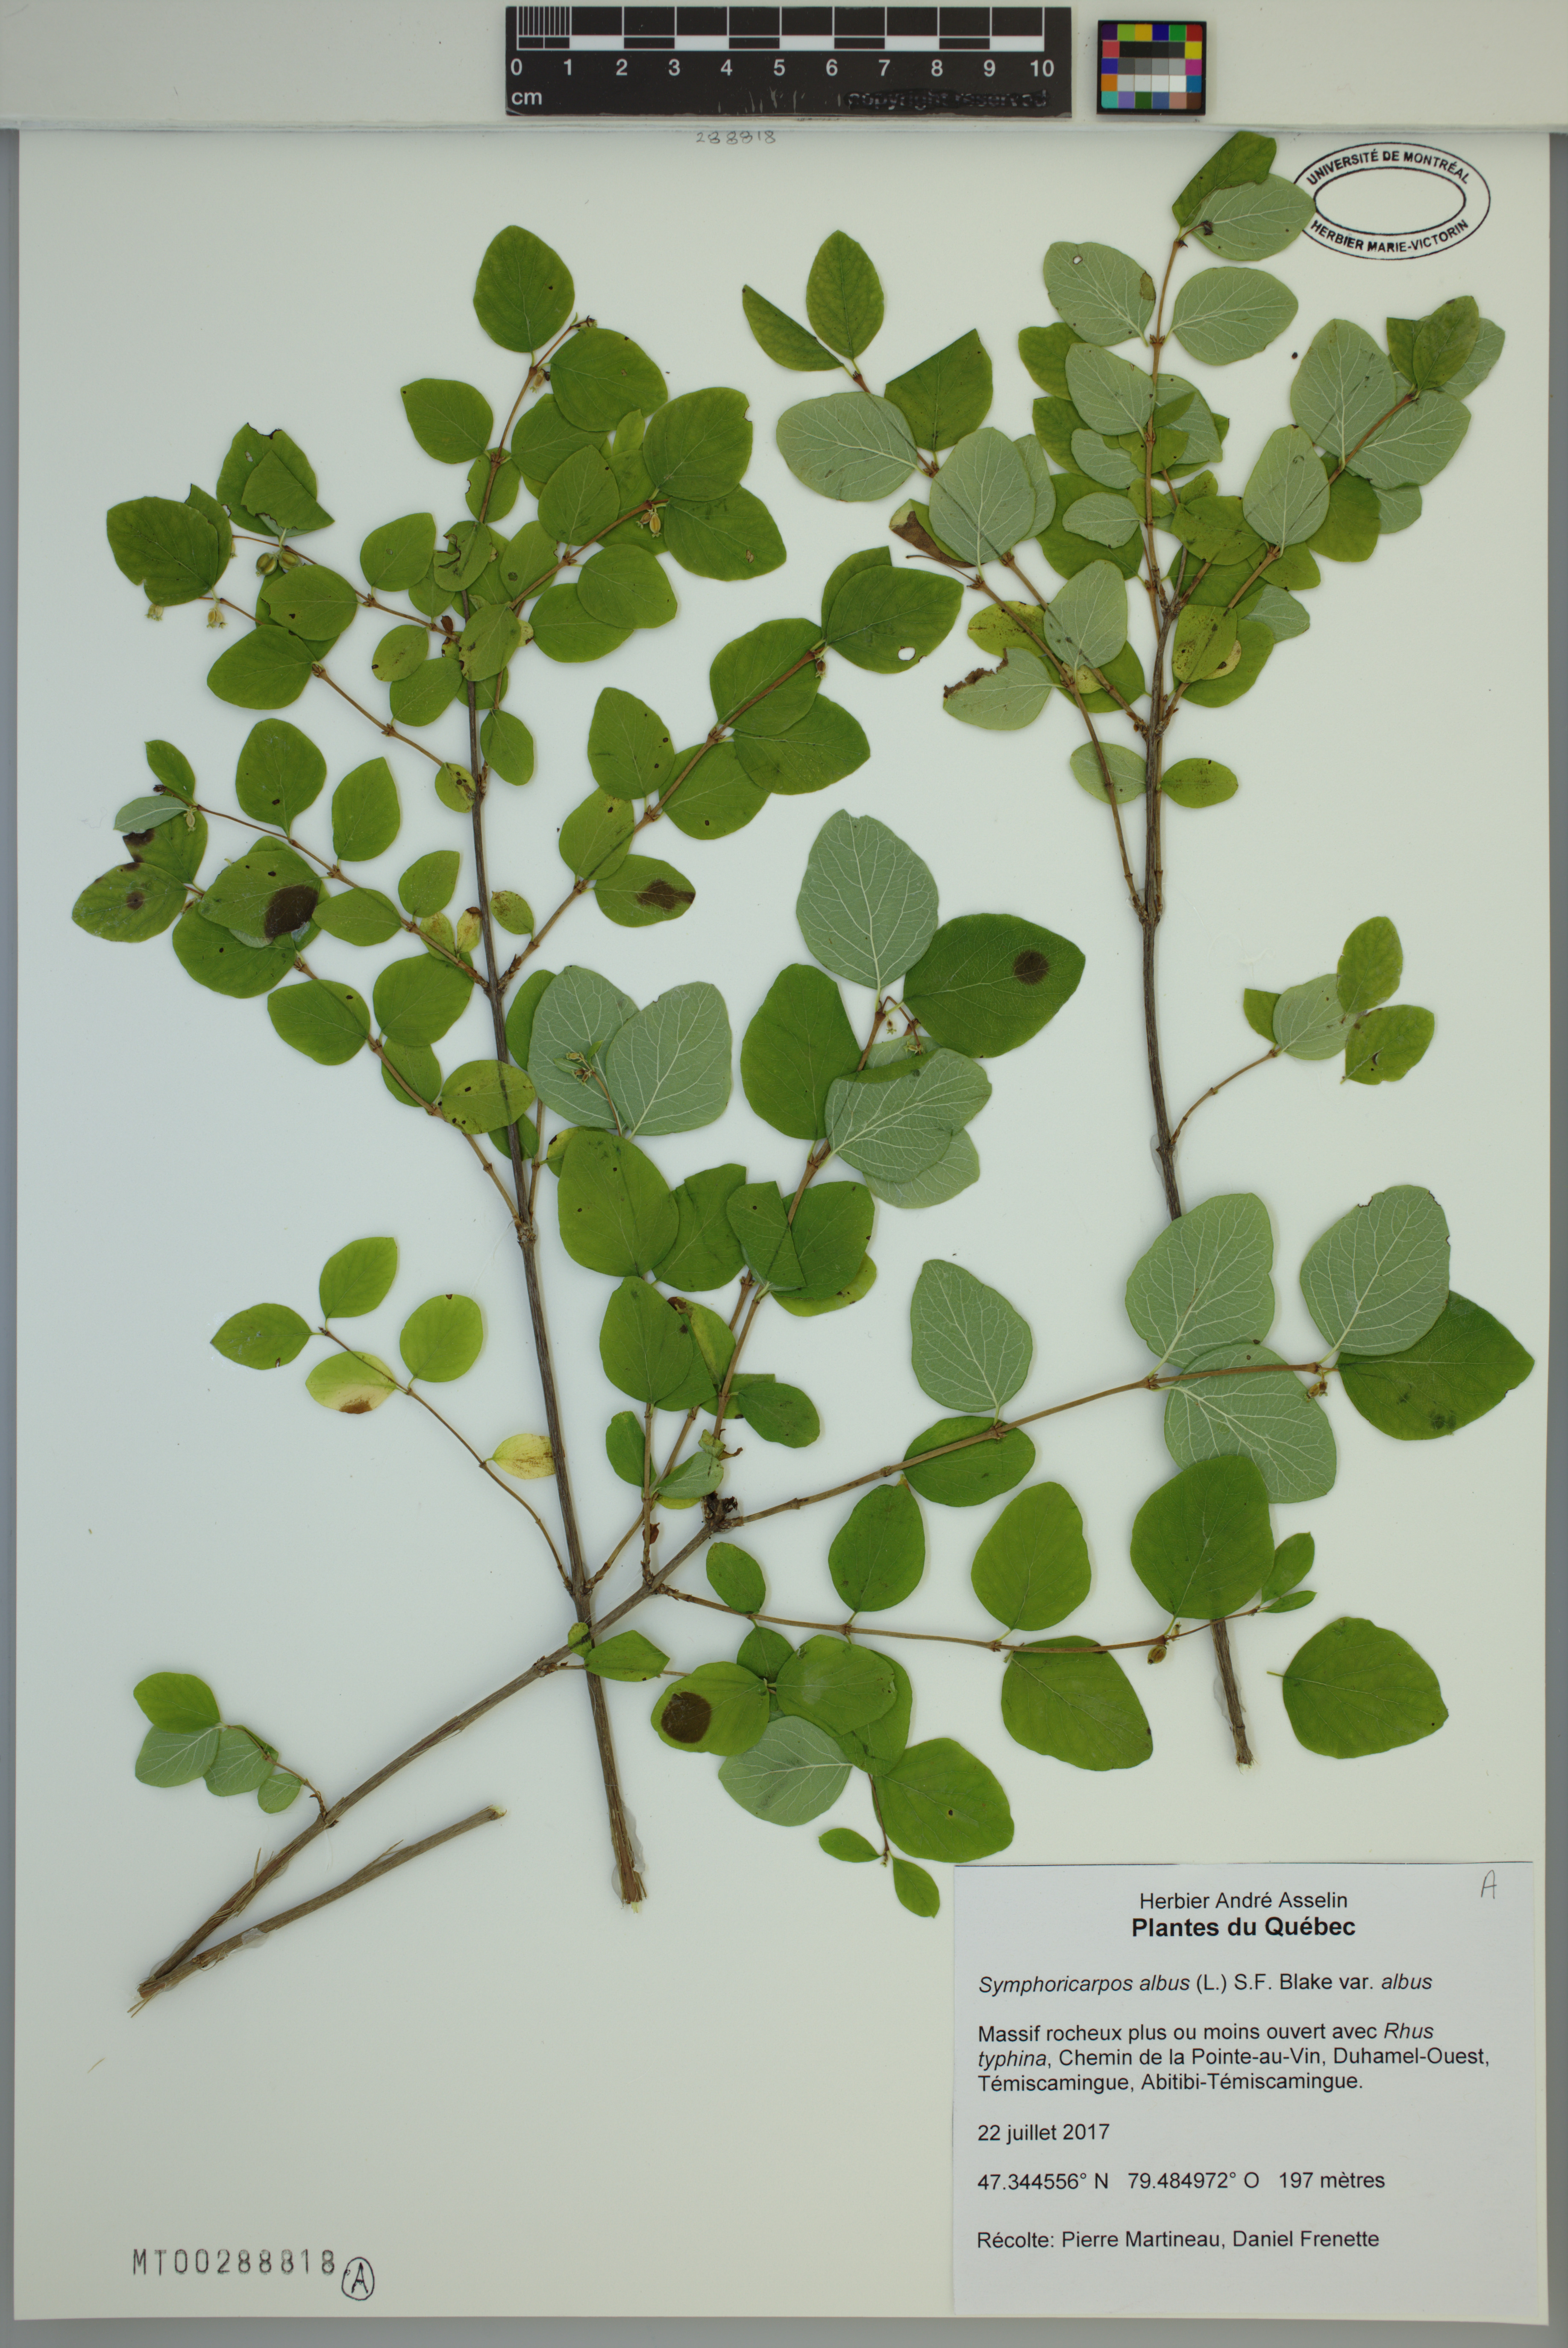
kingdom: Plantae
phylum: Tracheophyta
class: Magnoliopsida
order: Dipsacales
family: Caprifoliaceae
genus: Symphoricarpos
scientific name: Symphoricarpos albus
